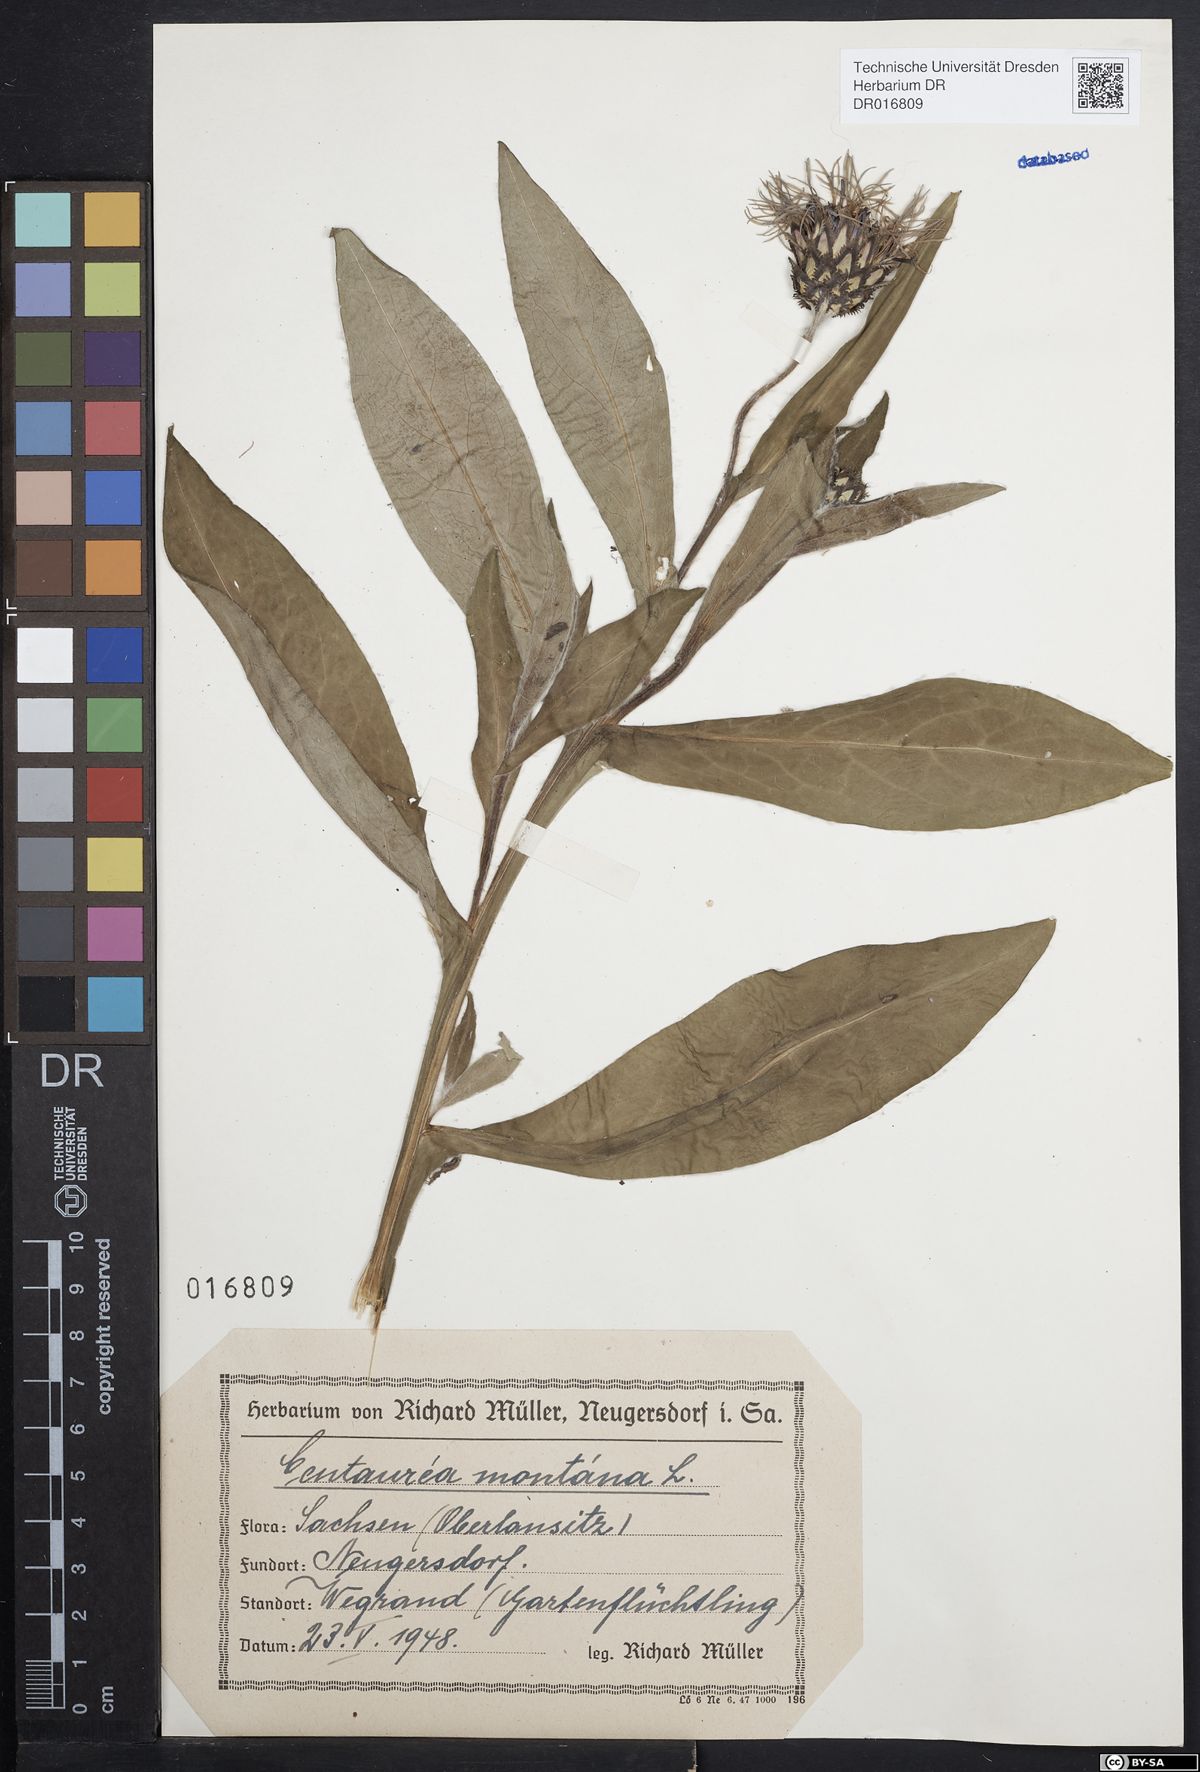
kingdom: Plantae
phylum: Tracheophyta
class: Magnoliopsida
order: Asterales
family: Asteraceae
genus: Centaurea
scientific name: Centaurea montana
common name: Perennial cornflower
